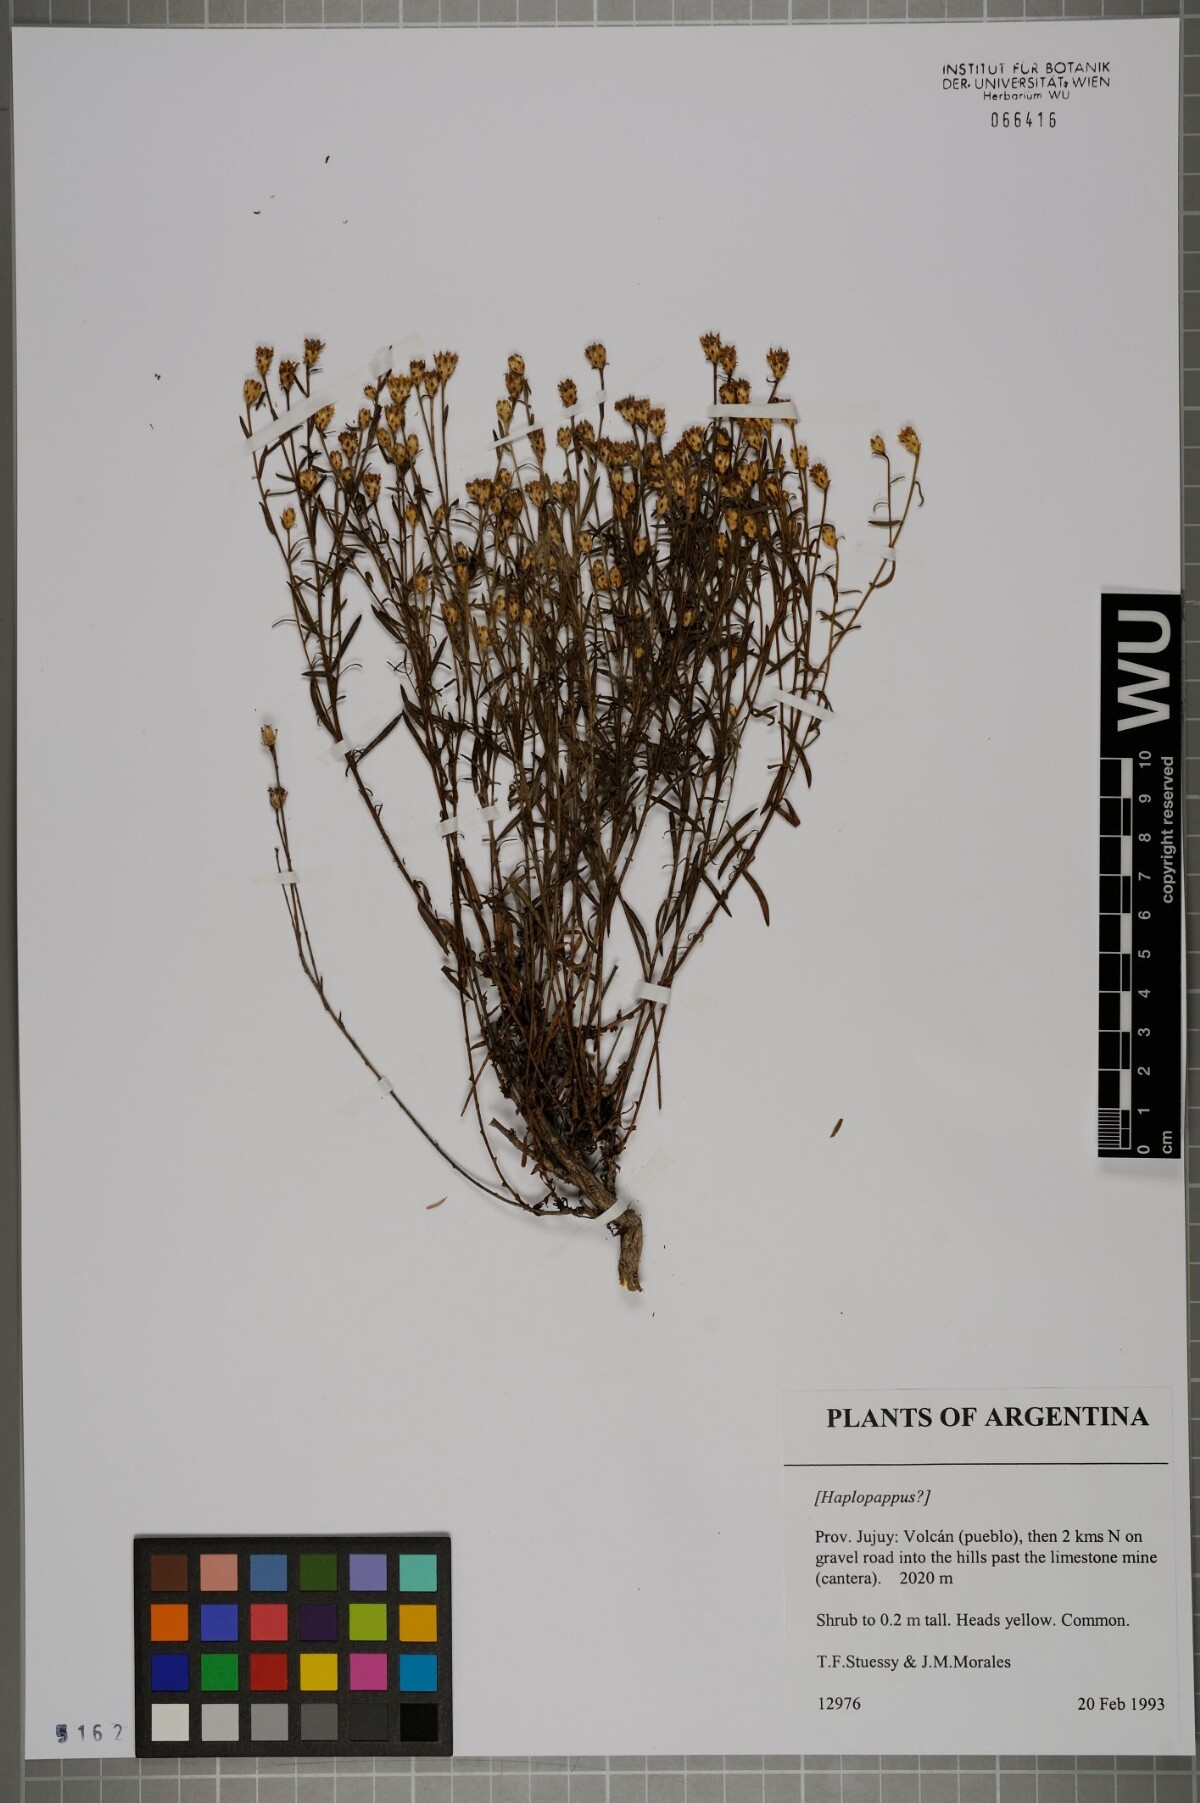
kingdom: Plantae
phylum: Tracheophyta
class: Magnoliopsida
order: Asterales
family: Asteraceae
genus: Haplopappus
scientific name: Haplopappus
